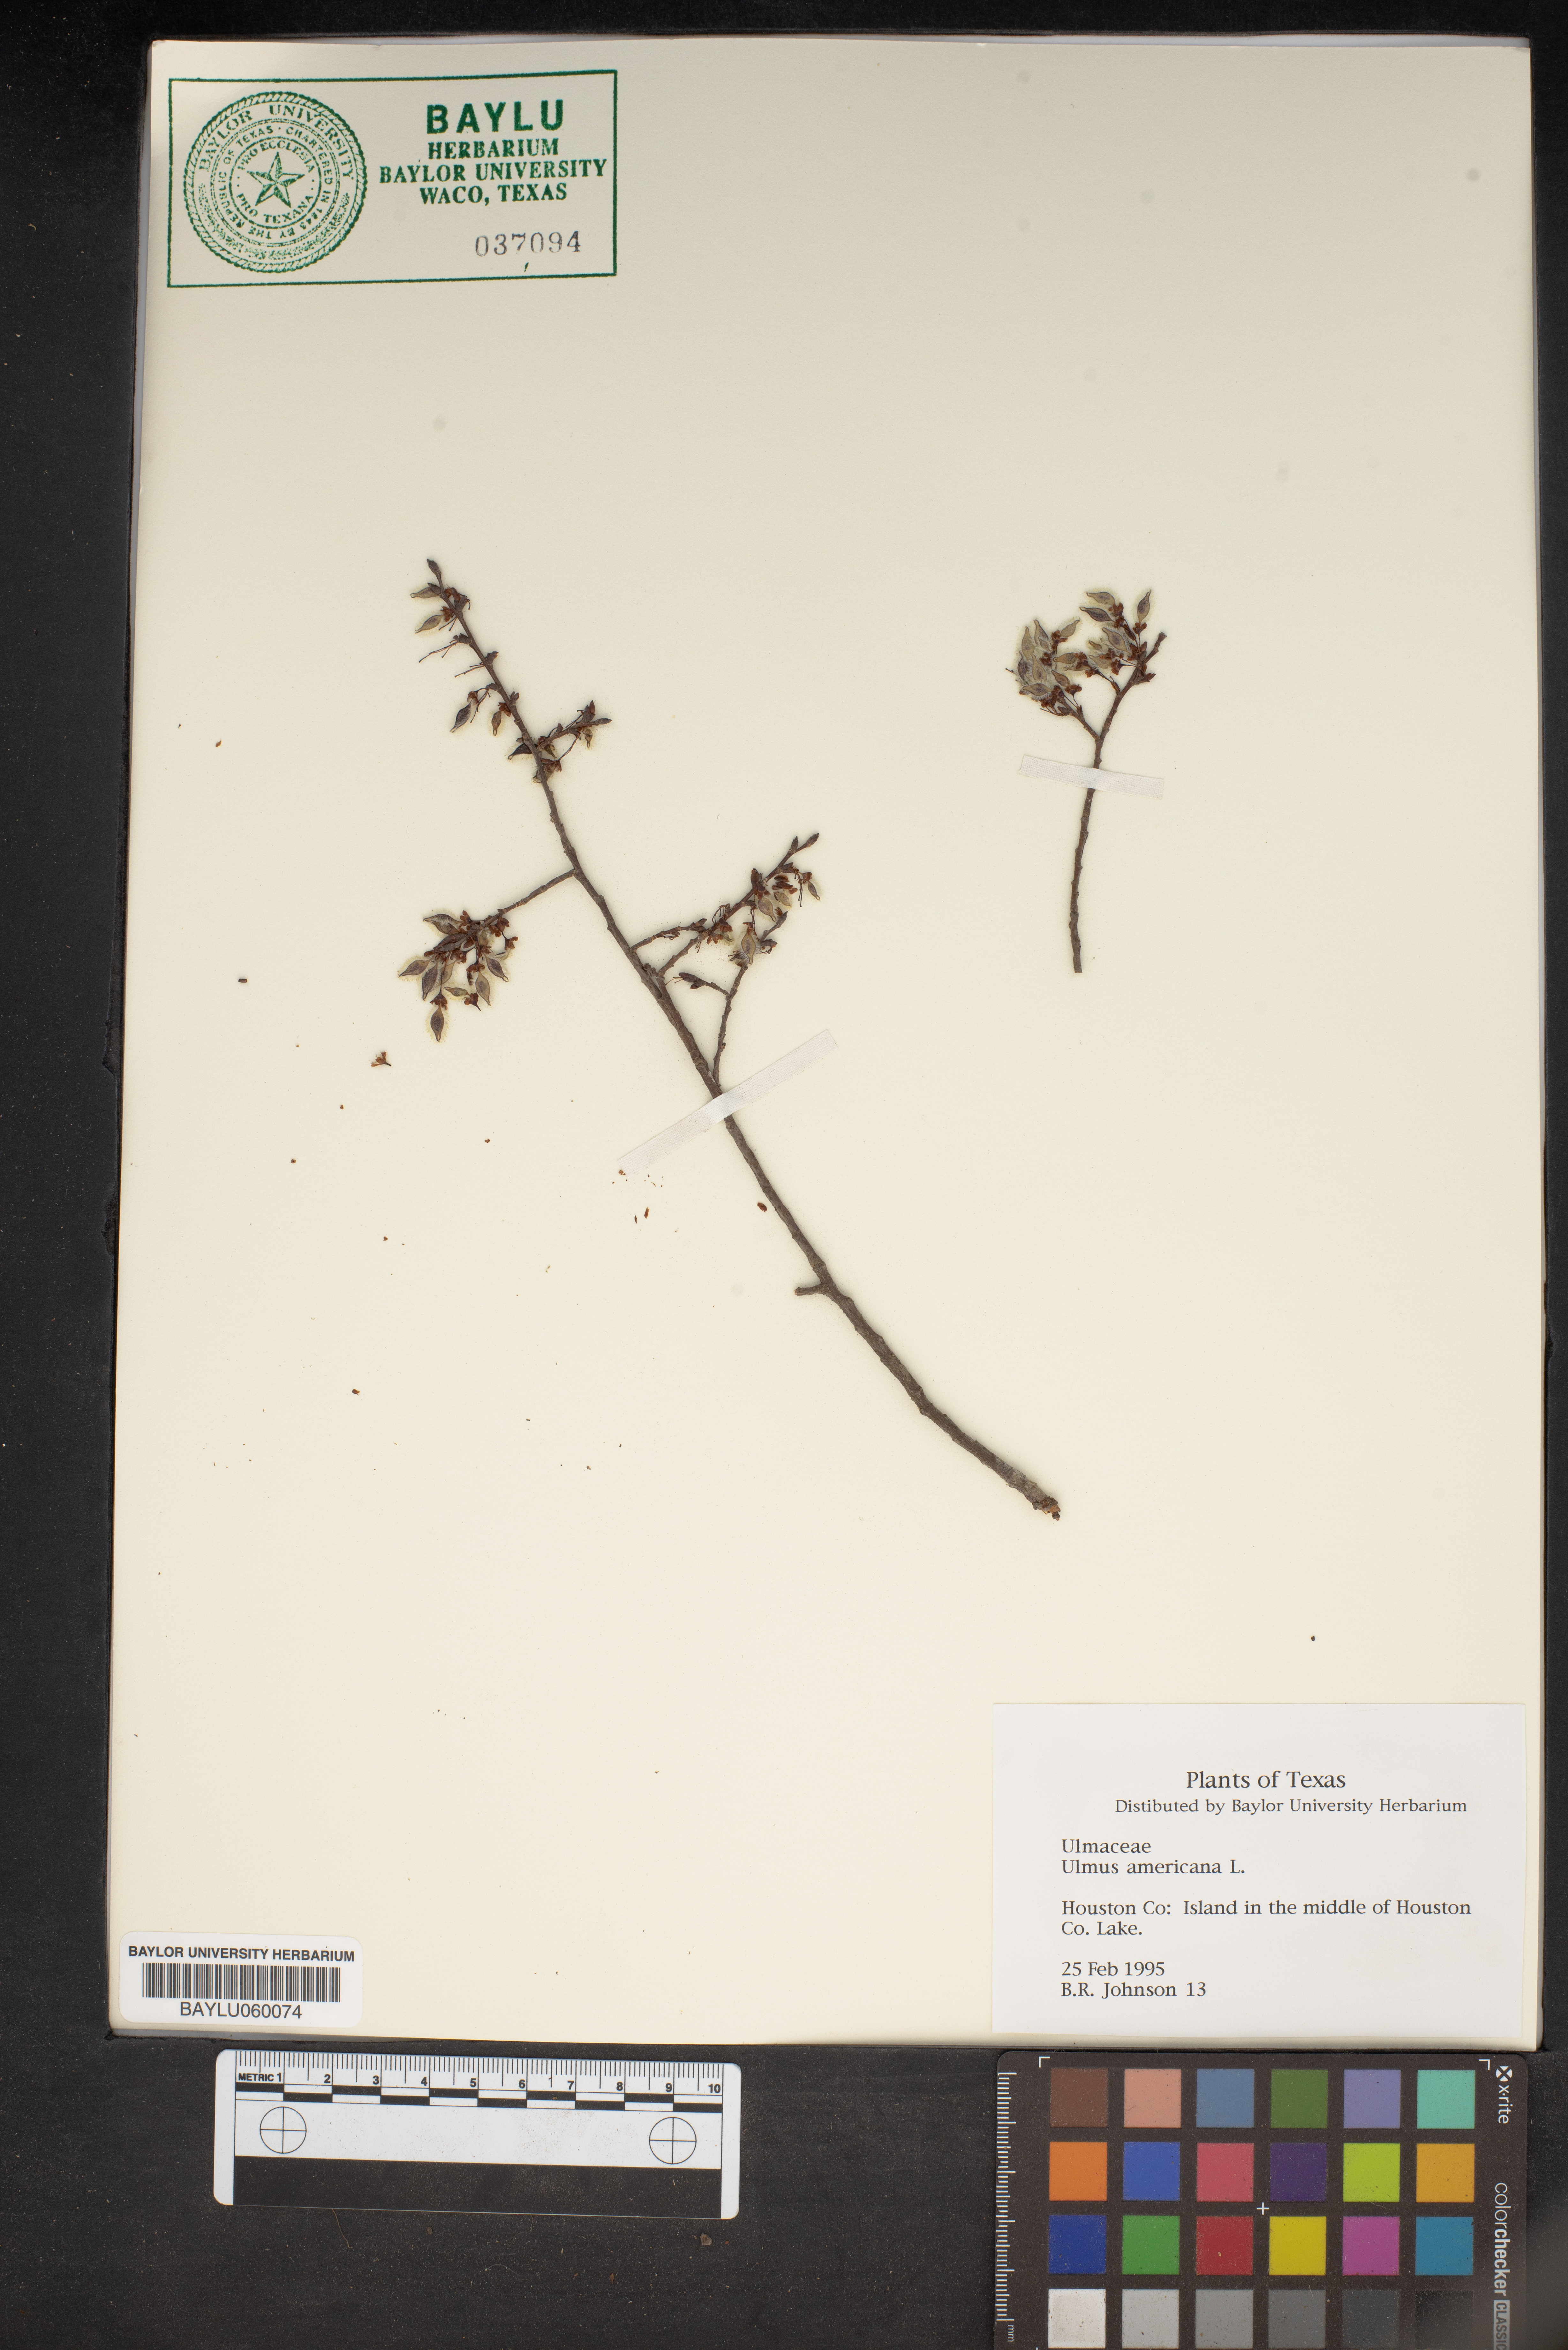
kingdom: Plantae
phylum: Tracheophyta
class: Magnoliopsida
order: Rosales
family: Ulmaceae
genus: Ulmus
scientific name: Ulmus americana
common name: American elm
